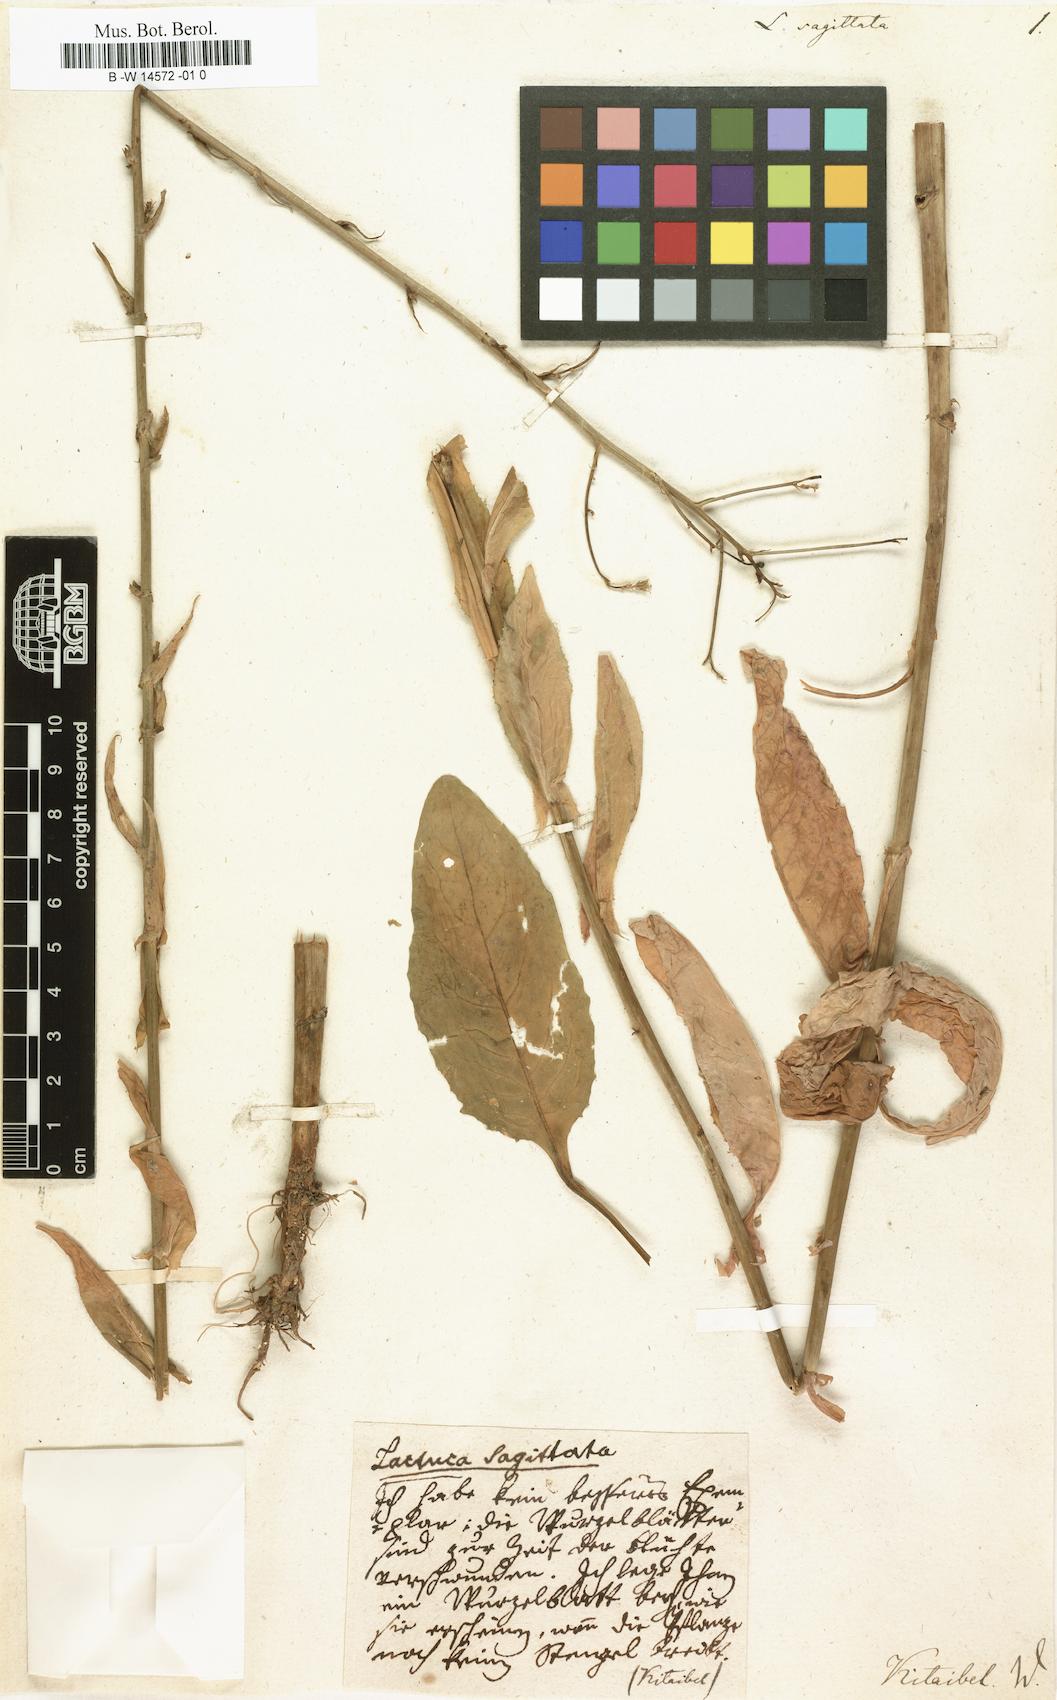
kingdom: Plantae
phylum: Tracheophyta
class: Magnoliopsida
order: Asterales
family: Asteraceae
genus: Lactuca
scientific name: Lactuca sagittata
